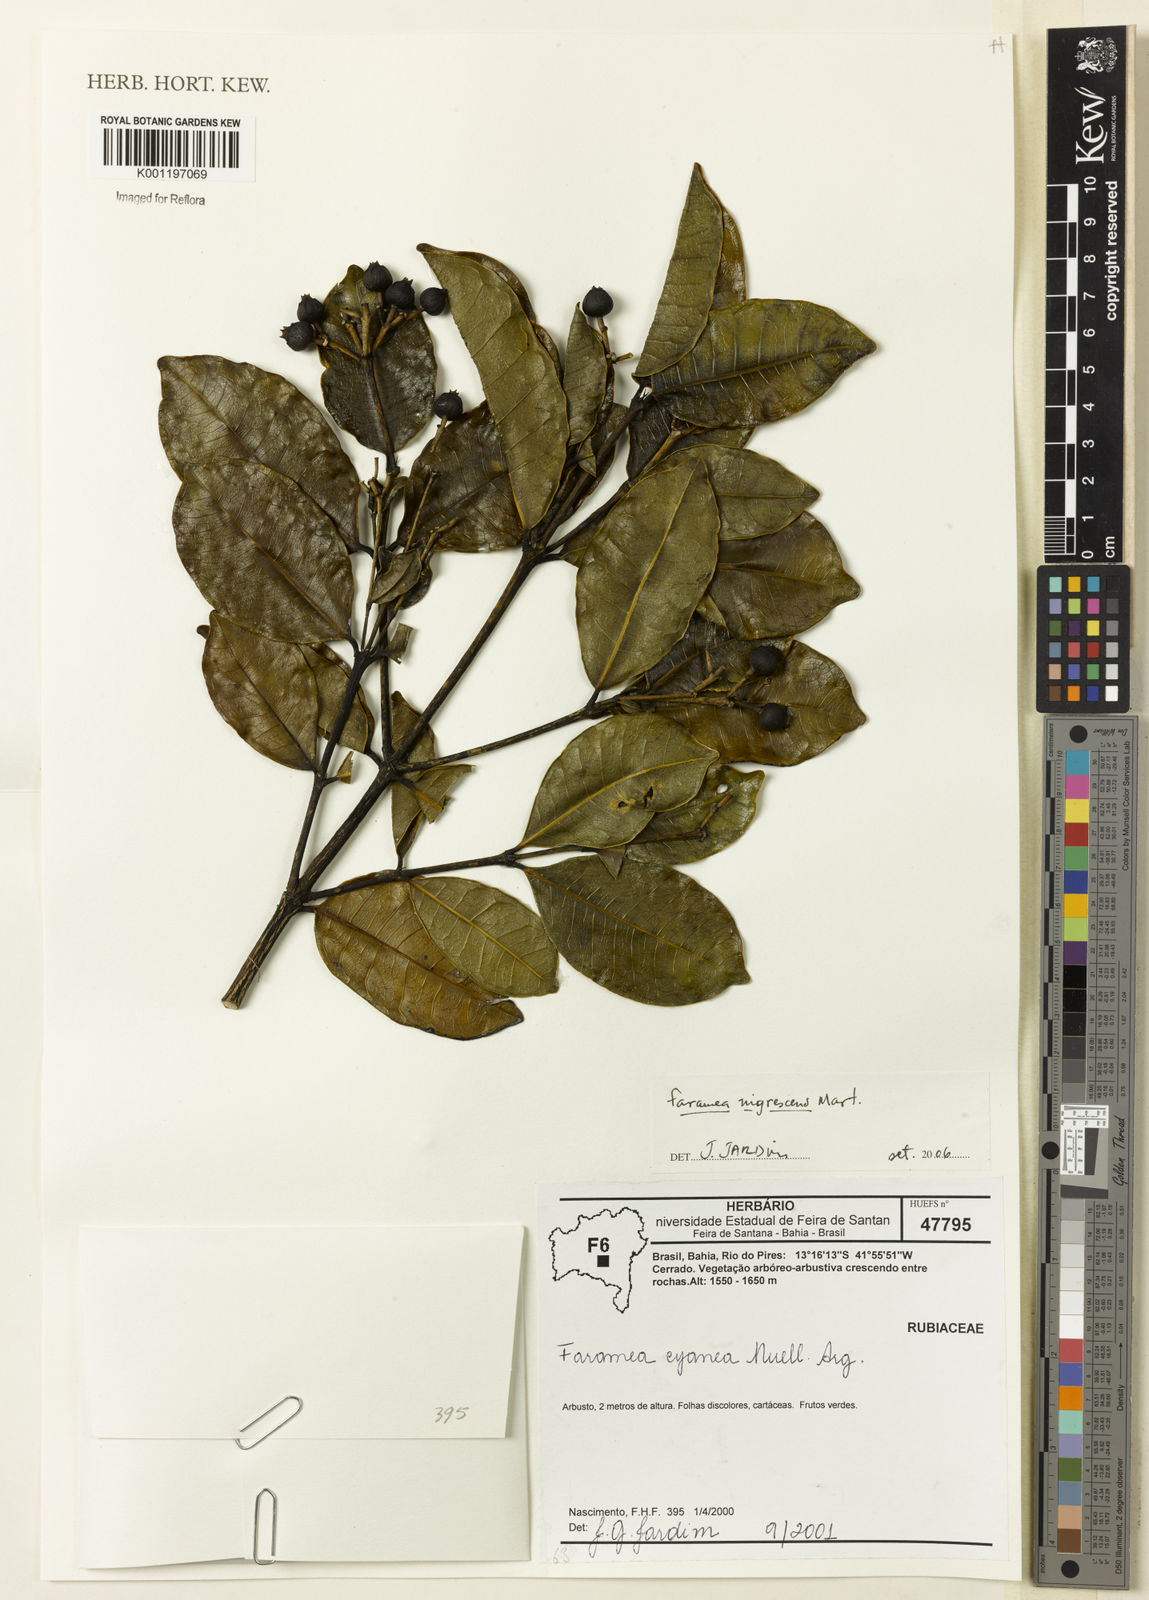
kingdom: Plantae
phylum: Tracheophyta
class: Magnoliopsida
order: Gentianales
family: Rubiaceae
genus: Faramea
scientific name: Faramea nigrescens
